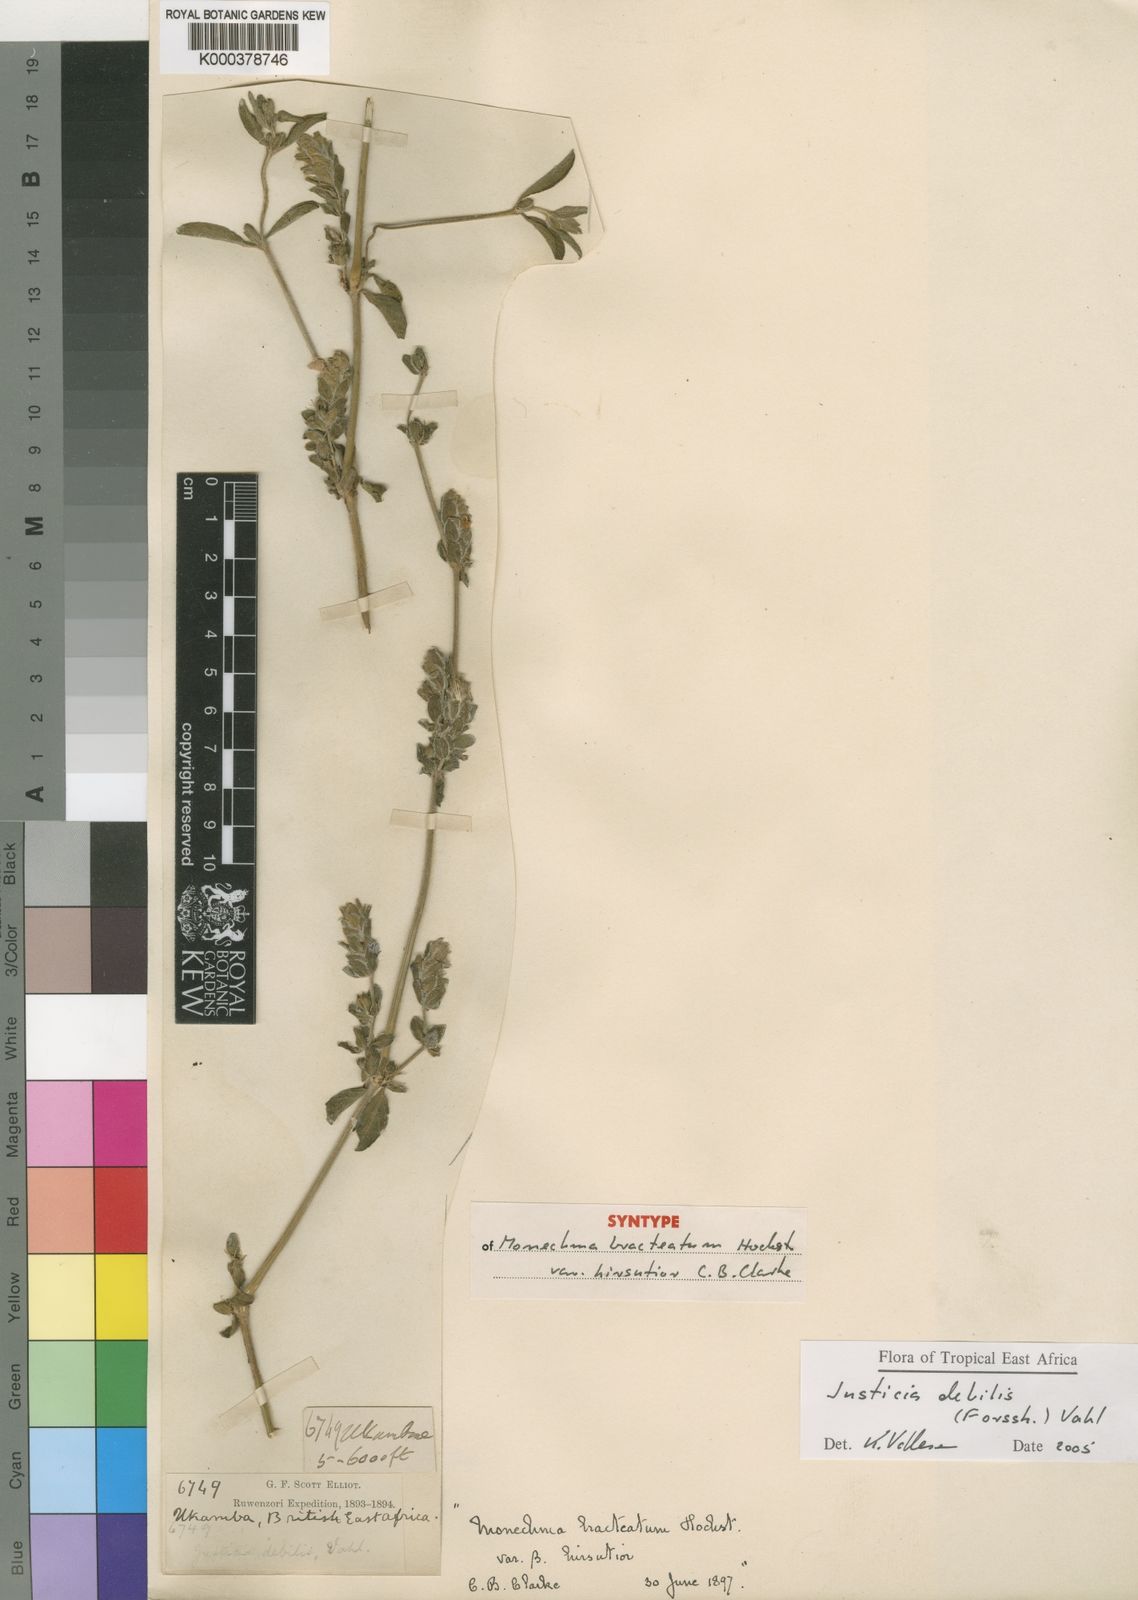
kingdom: Plantae
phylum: Tracheophyta
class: Magnoliopsida
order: Lamiales
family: Acanthaceae
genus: Monechma
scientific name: Monechma debile
